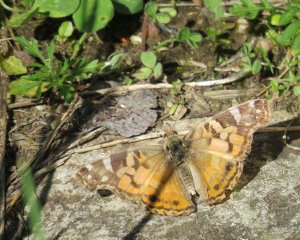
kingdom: Animalia
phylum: Arthropoda
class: Insecta
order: Lepidoptera
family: Nymphalidae
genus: Vanessa
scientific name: Vanessa virginiensis
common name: American Lady
